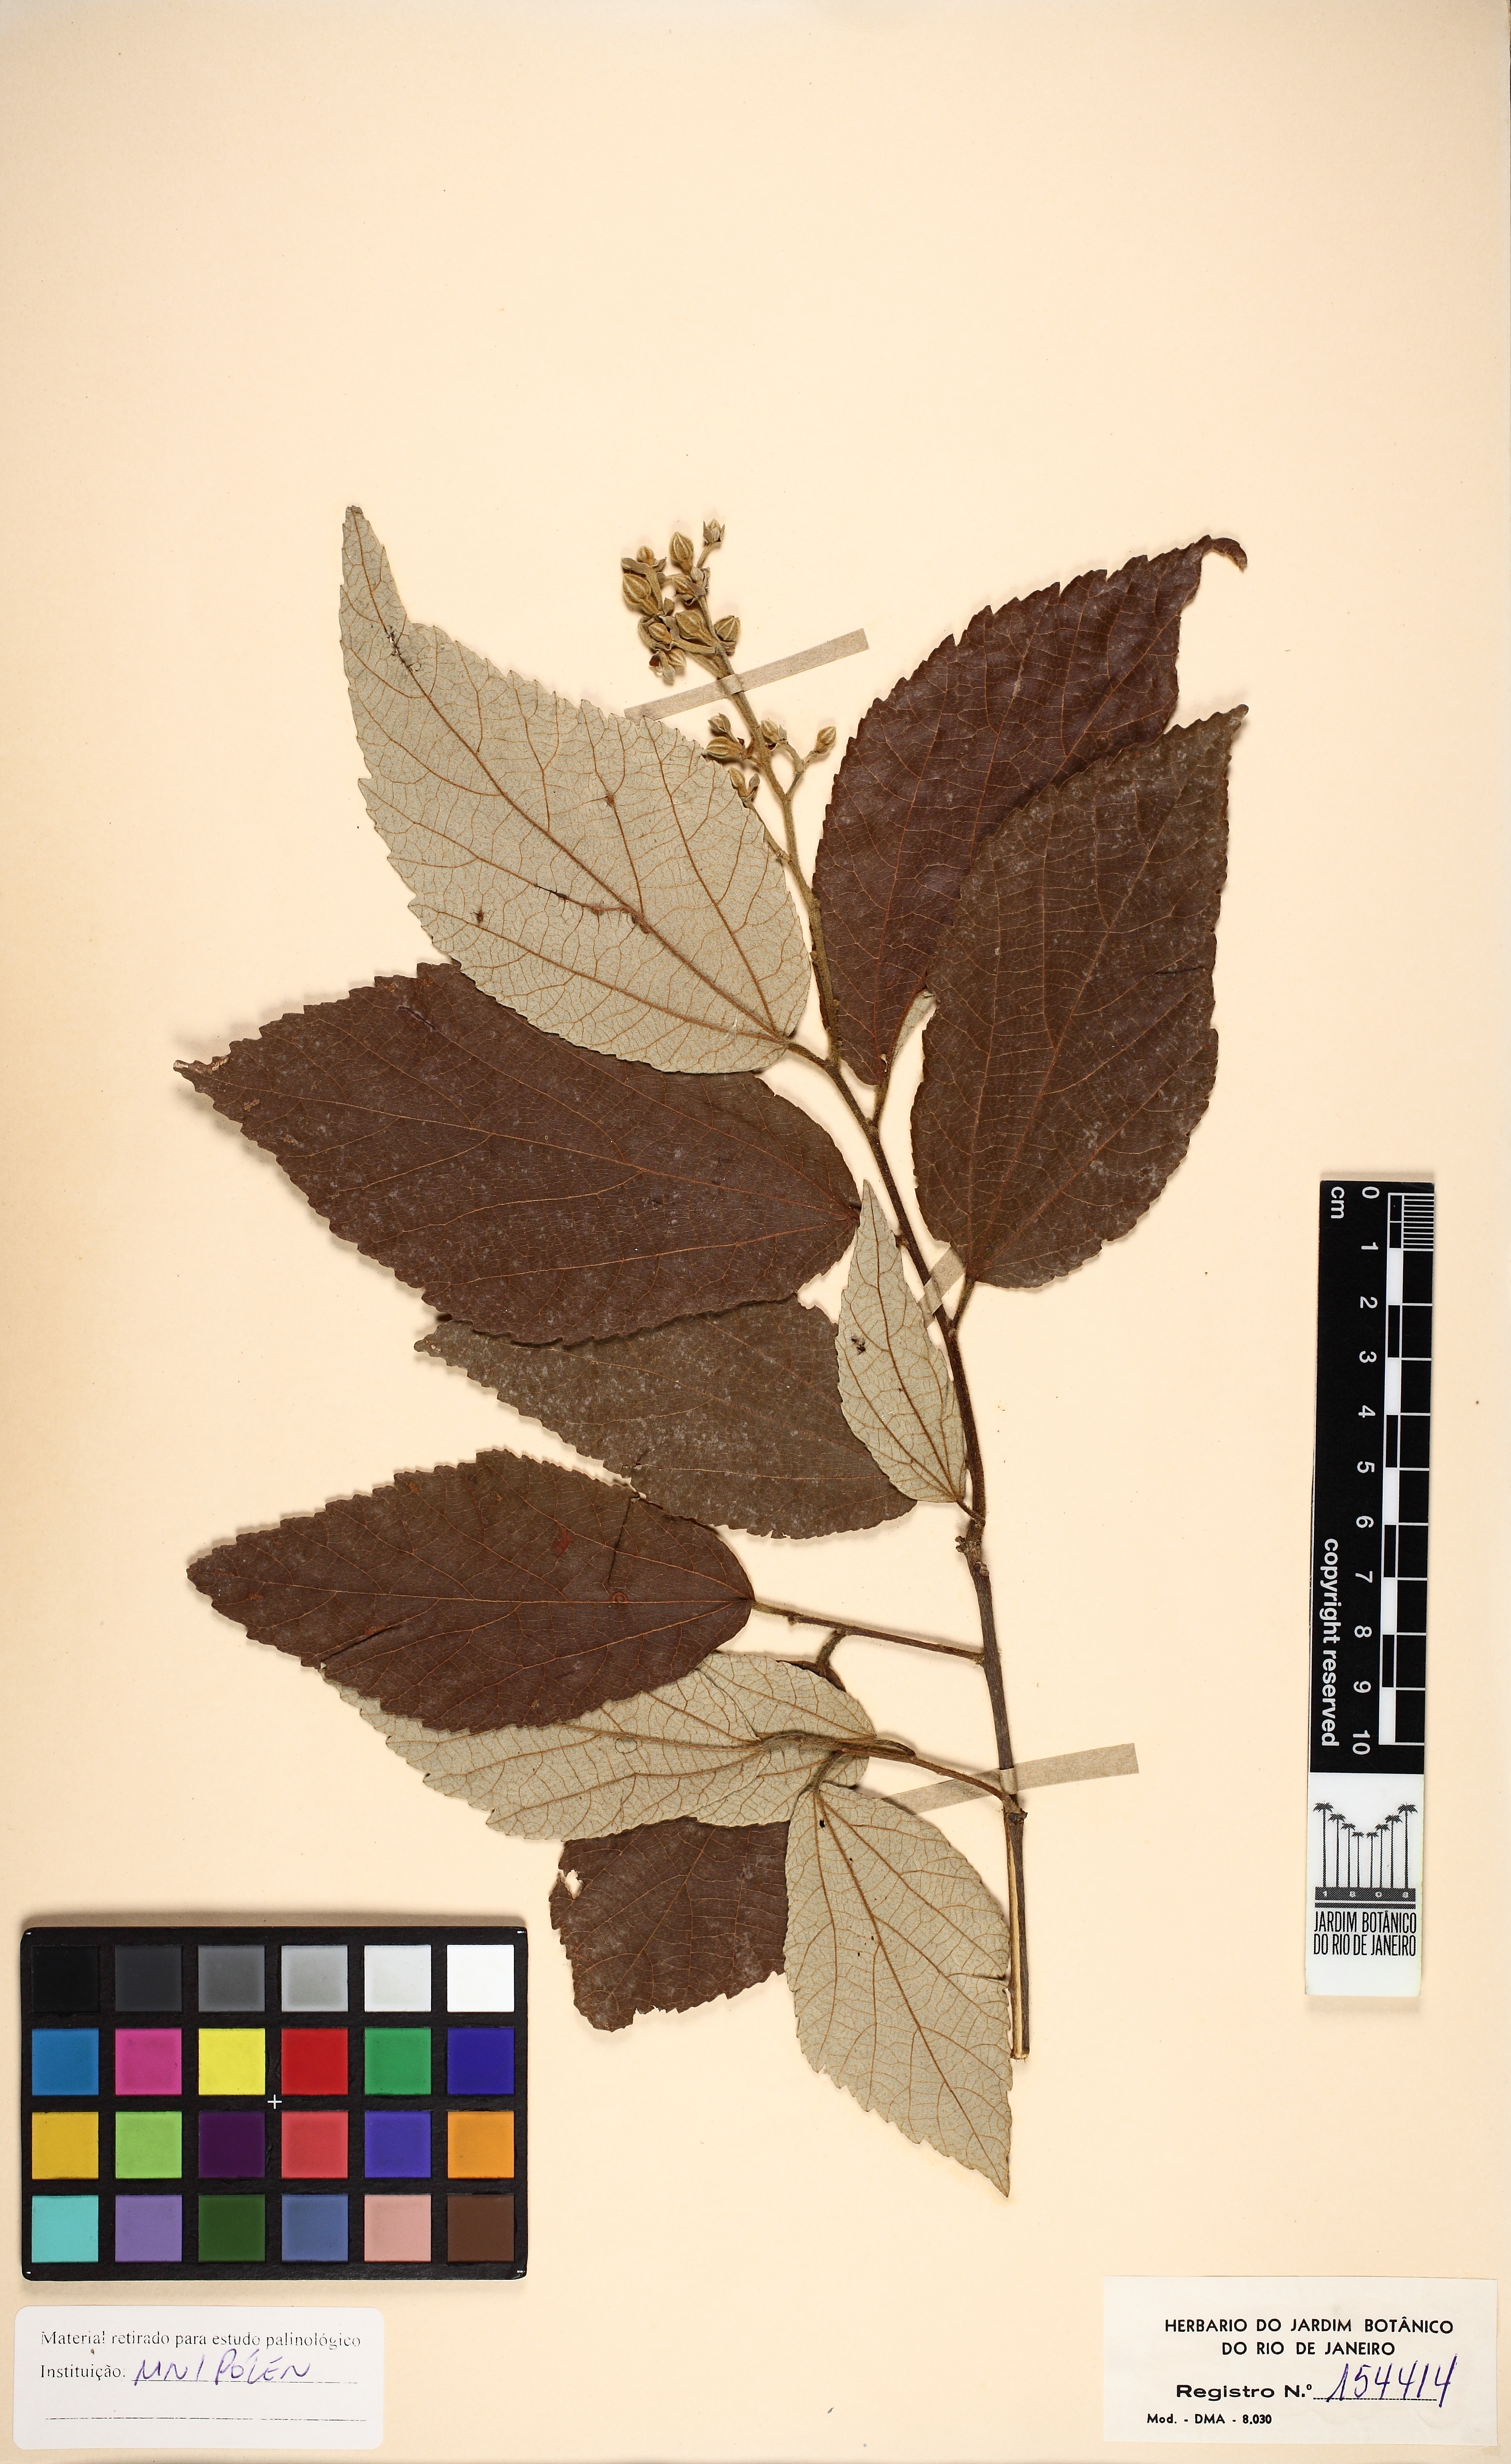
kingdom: Plantae
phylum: Tracheophyta
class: Magnoliopsida
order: Malvales
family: Malvaceae
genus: Luehea
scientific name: Luehea paniculata
